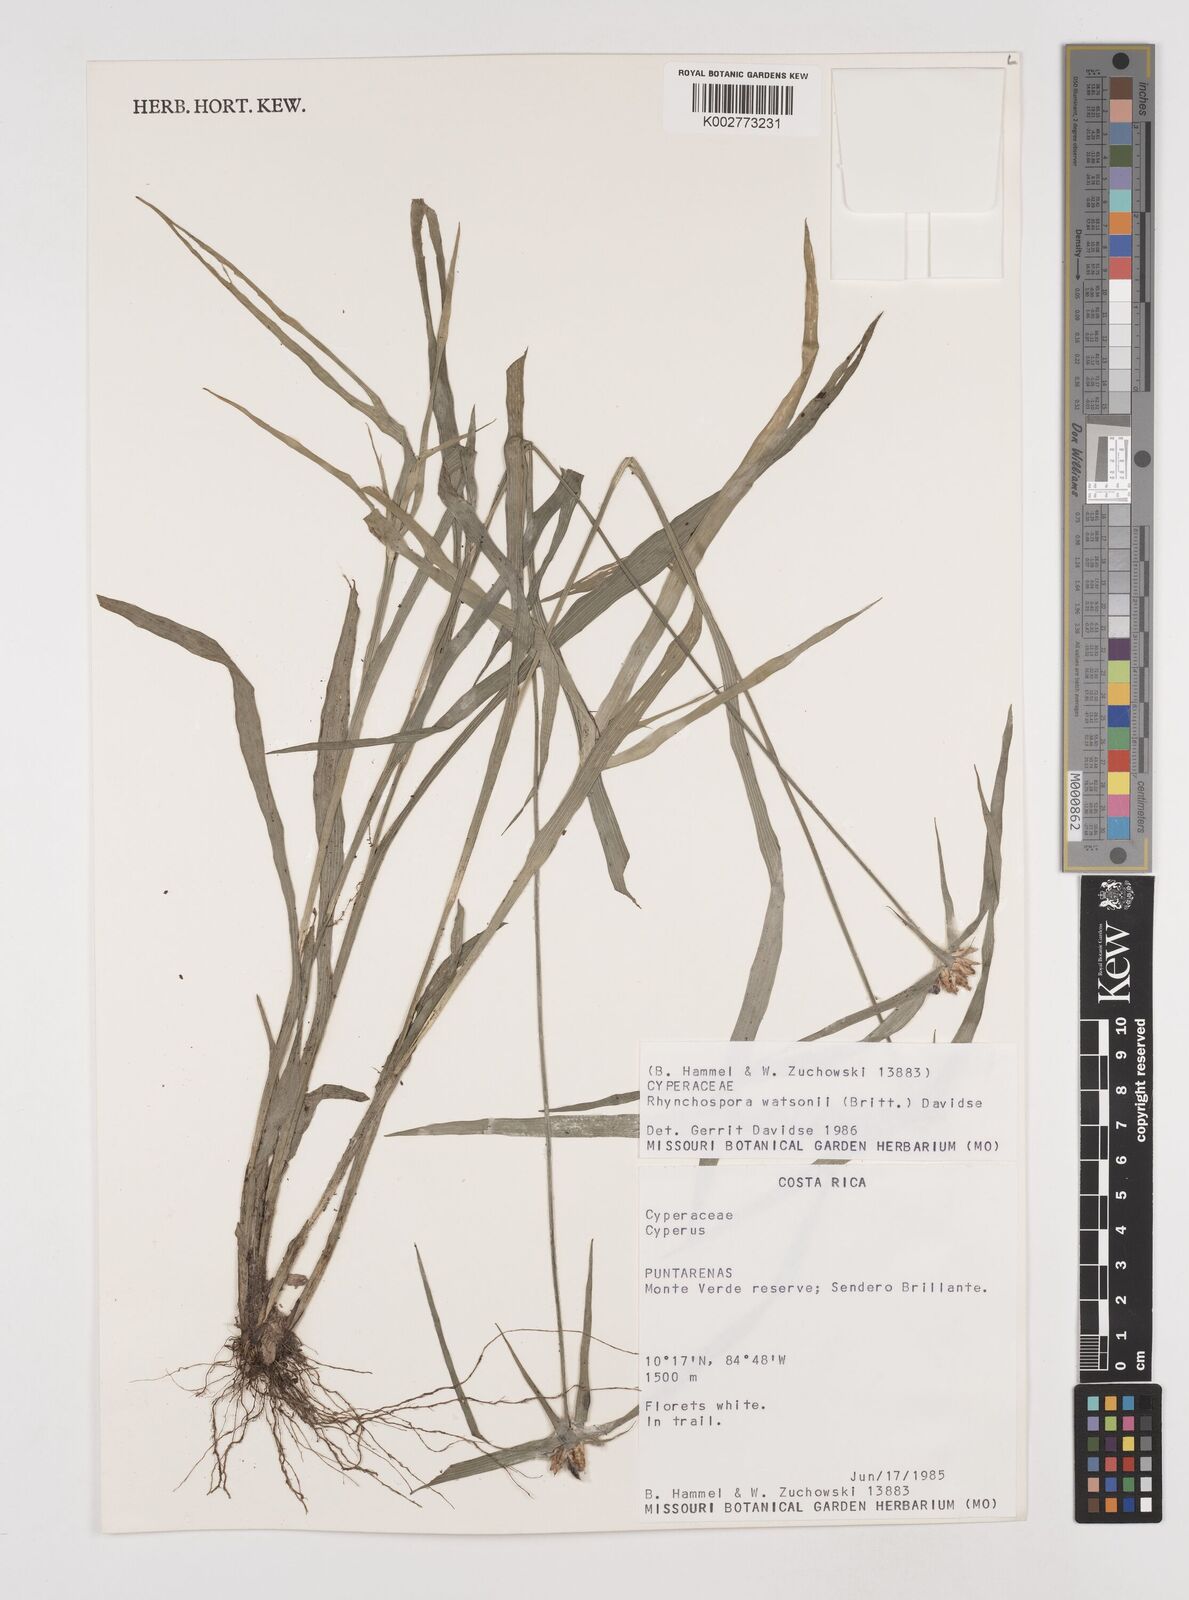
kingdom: Plantae
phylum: Tracheophyta
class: Liliopsida
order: Poales
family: Cyperaceae
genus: Rhynchospora
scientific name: Rhynchospora watsonii
